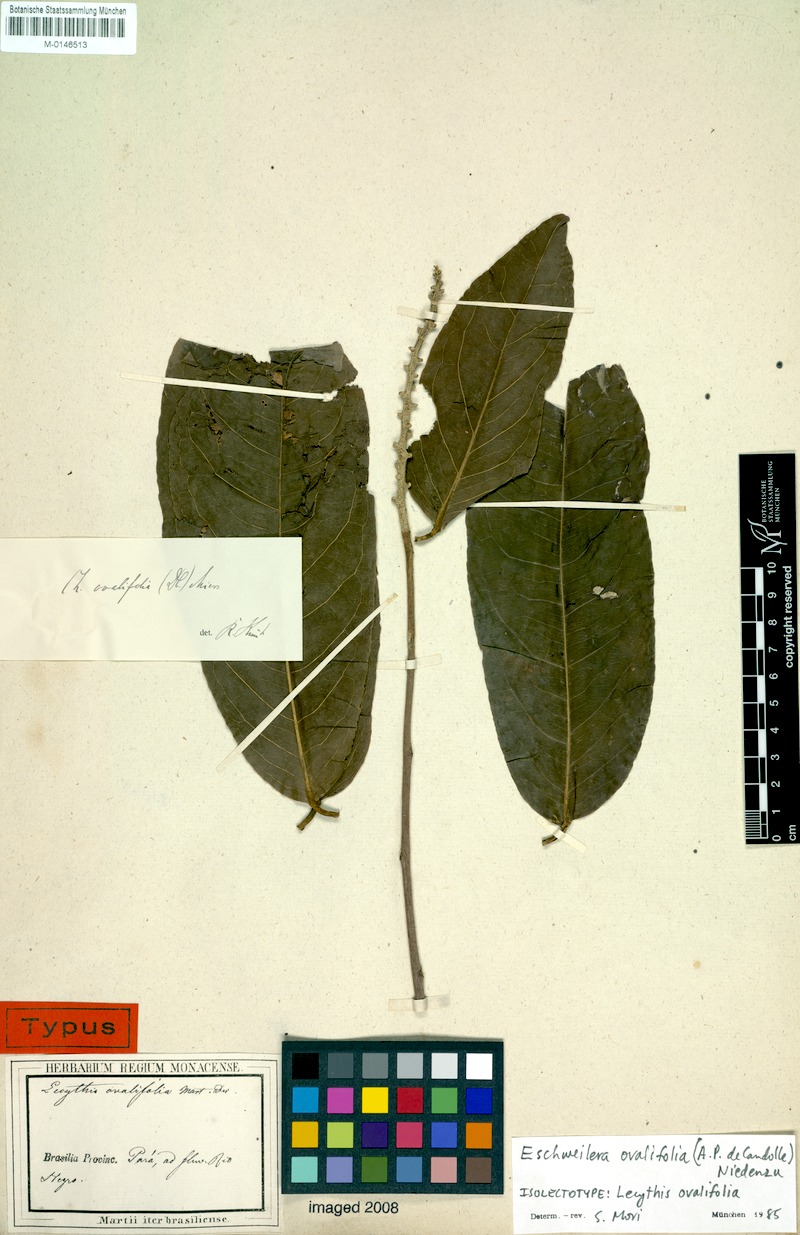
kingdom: Plantae
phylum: Tracheophyta
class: Magnoliopsida
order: Ericales
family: Lecythidaceae
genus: Eschweilera
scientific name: Eschweilera ovalifolia
